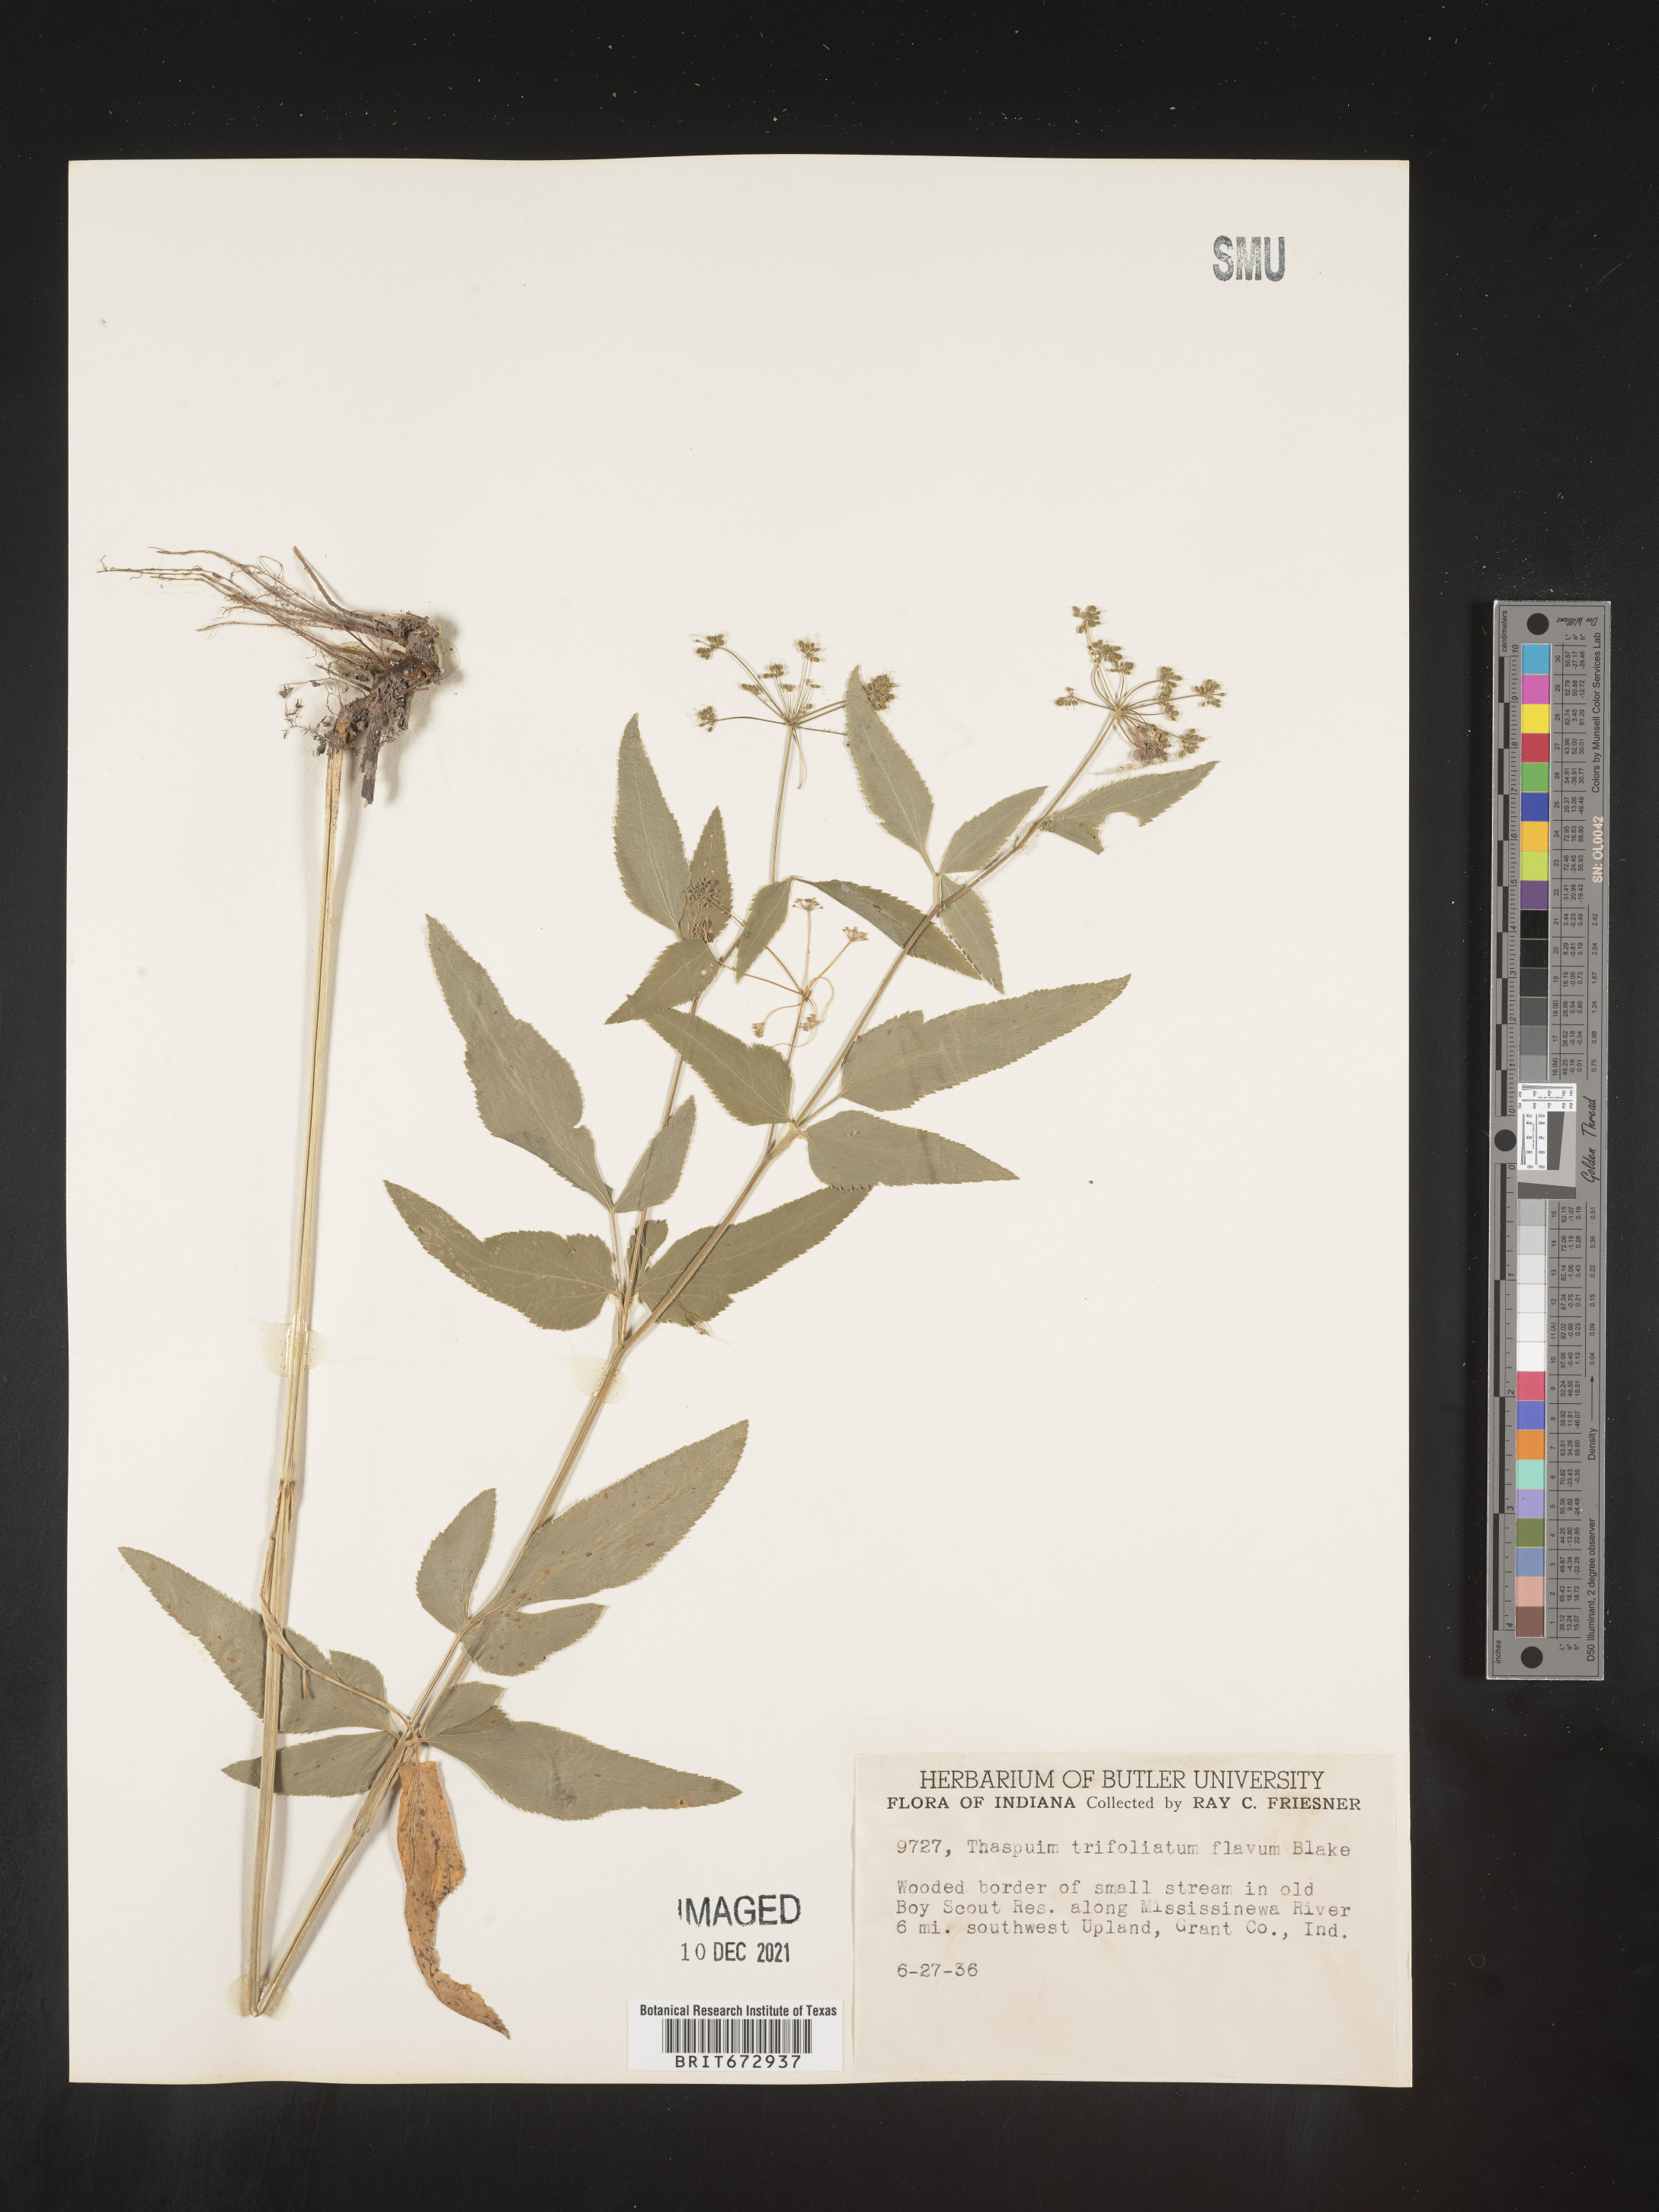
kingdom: Plantae
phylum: Tracheophyta
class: Magnoliopsida
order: Apiales
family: Apiaceae
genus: Thaspium
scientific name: Thaspium
